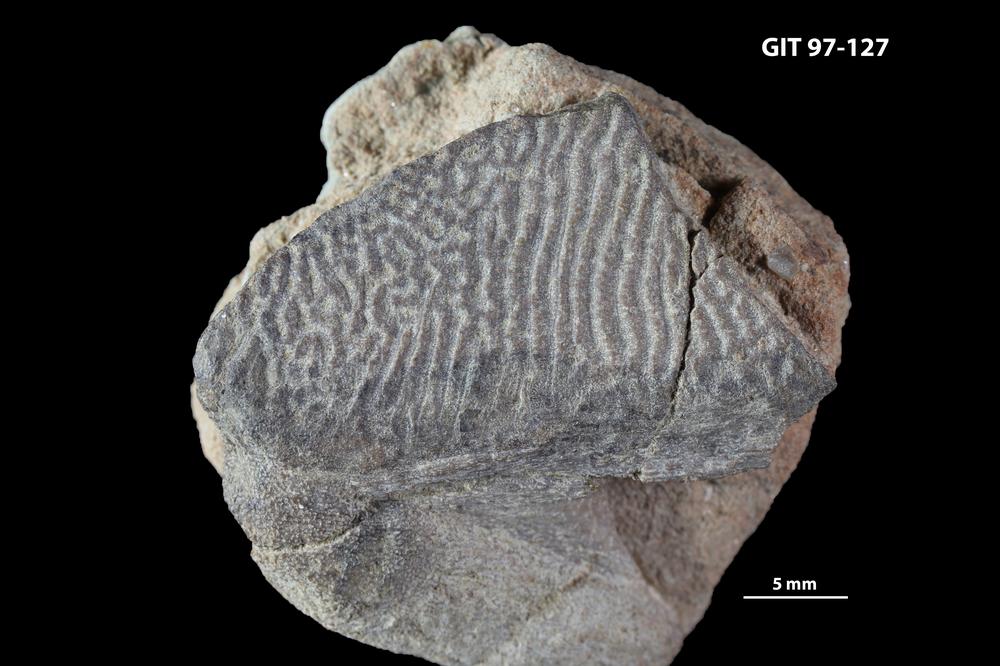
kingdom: Animalia
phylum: Chordata
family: Holonematidae
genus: Holonema
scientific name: Holonema
